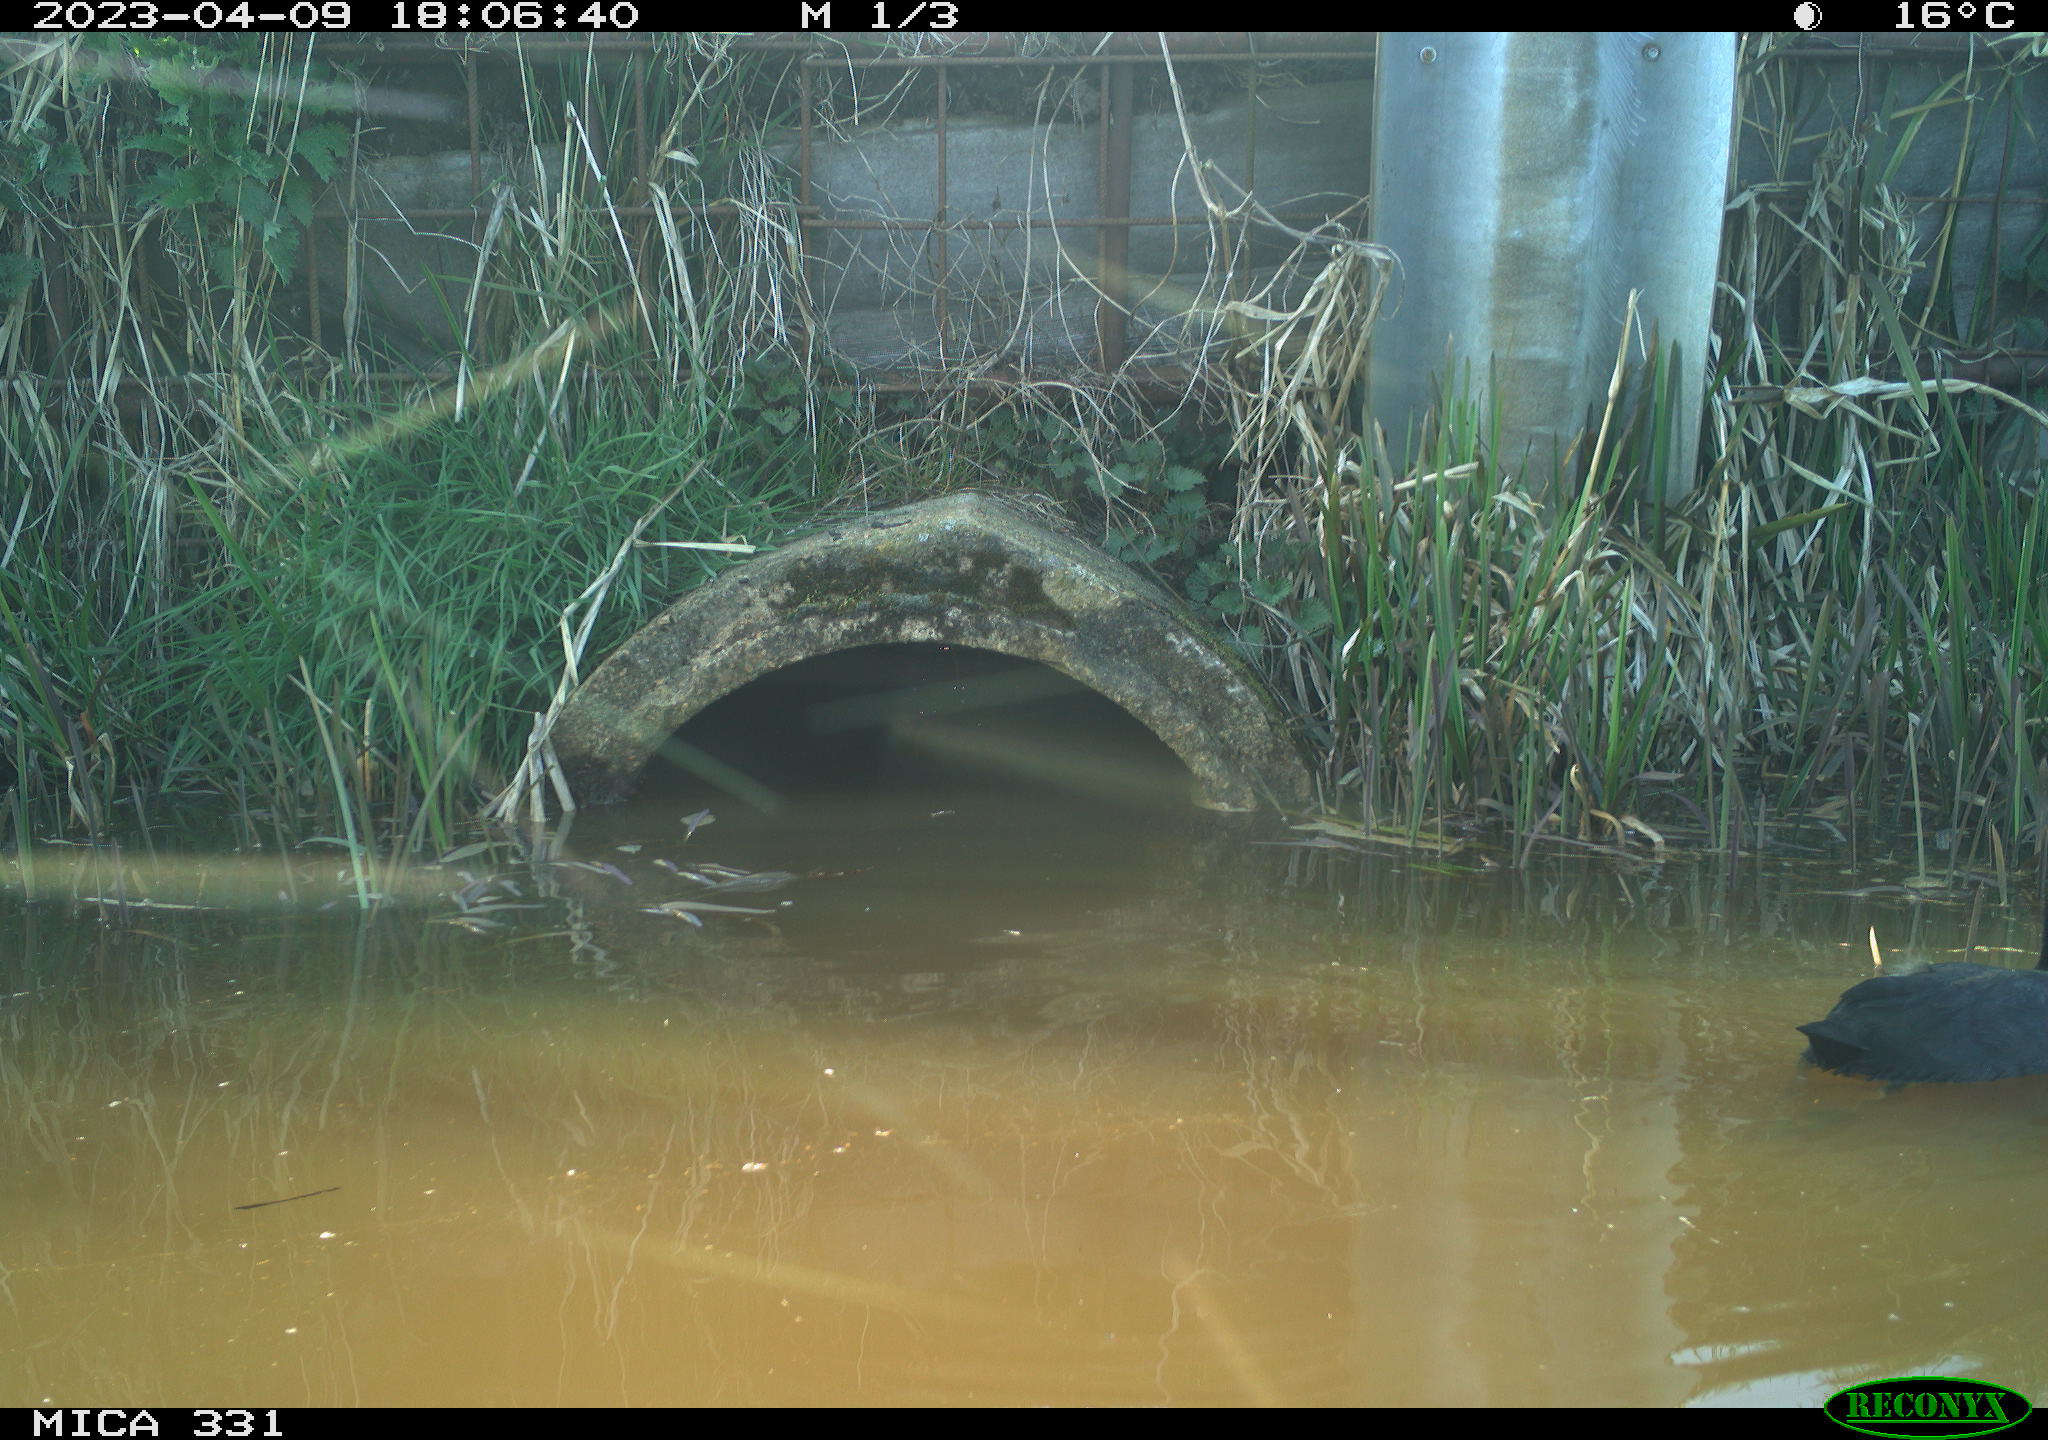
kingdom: Animalia
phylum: Chordata
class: Aves
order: Gruiformes
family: Rallidae
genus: Fulica
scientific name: Fulica atra
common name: Eurasian coot
